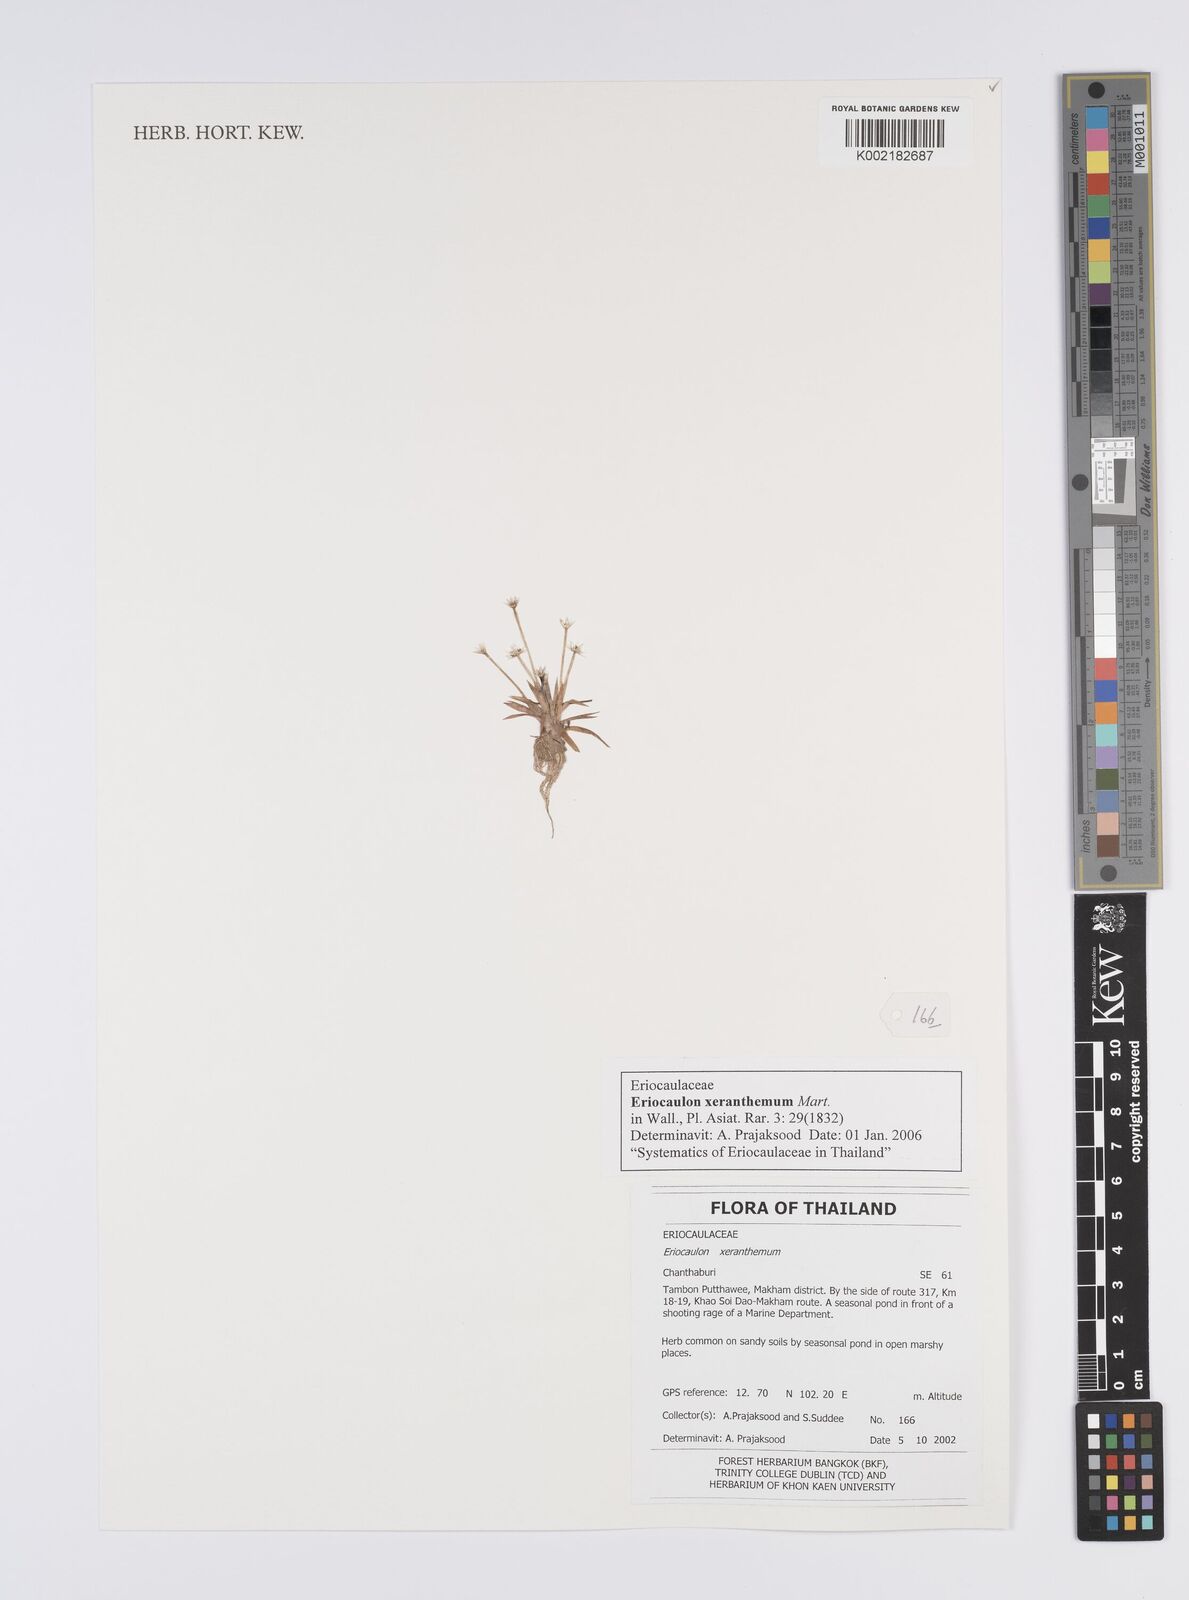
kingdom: Plantae
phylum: Tracheophyta
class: Liliopsida
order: Poales
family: Eriocaulaceae
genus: Eriocaulon
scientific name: Eriocaulon xeranthemum
